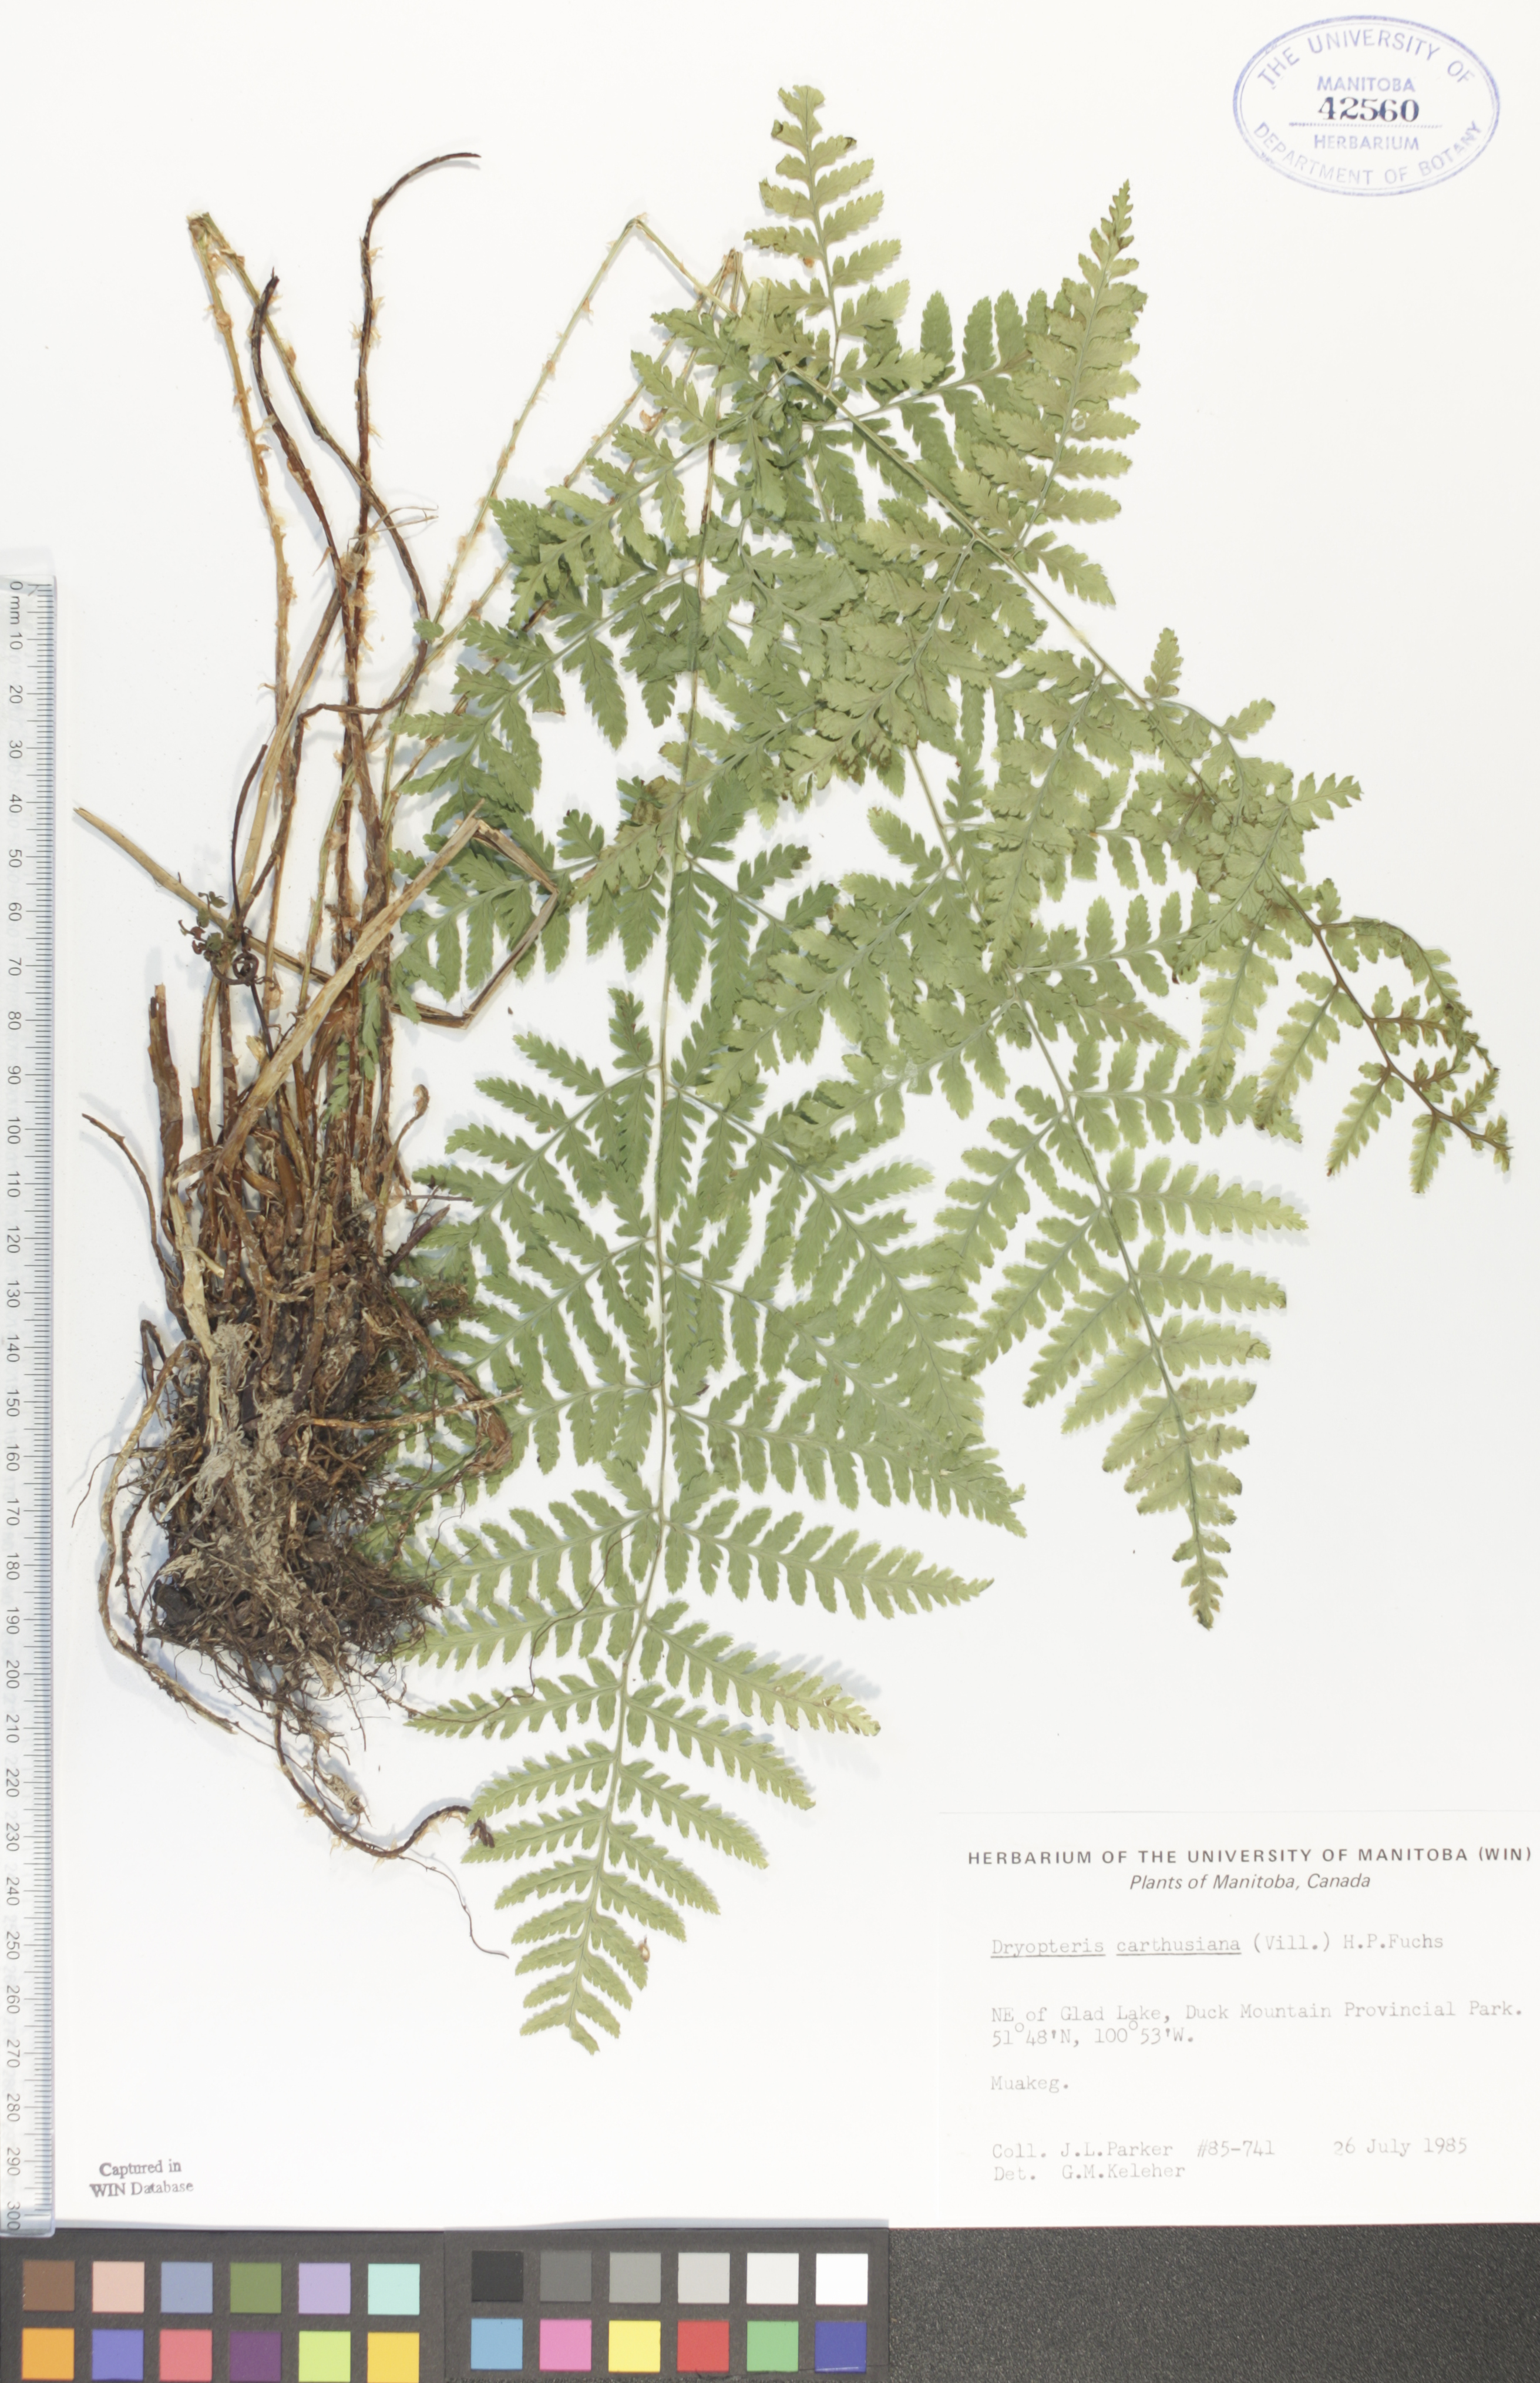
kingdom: Plantae
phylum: Tracheophyta
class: Polypodiopsida
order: Polypodiales
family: Dryopteridaceae
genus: Dryopteris
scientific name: Dryopteris carthusiana
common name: Narrow buckler-fern
